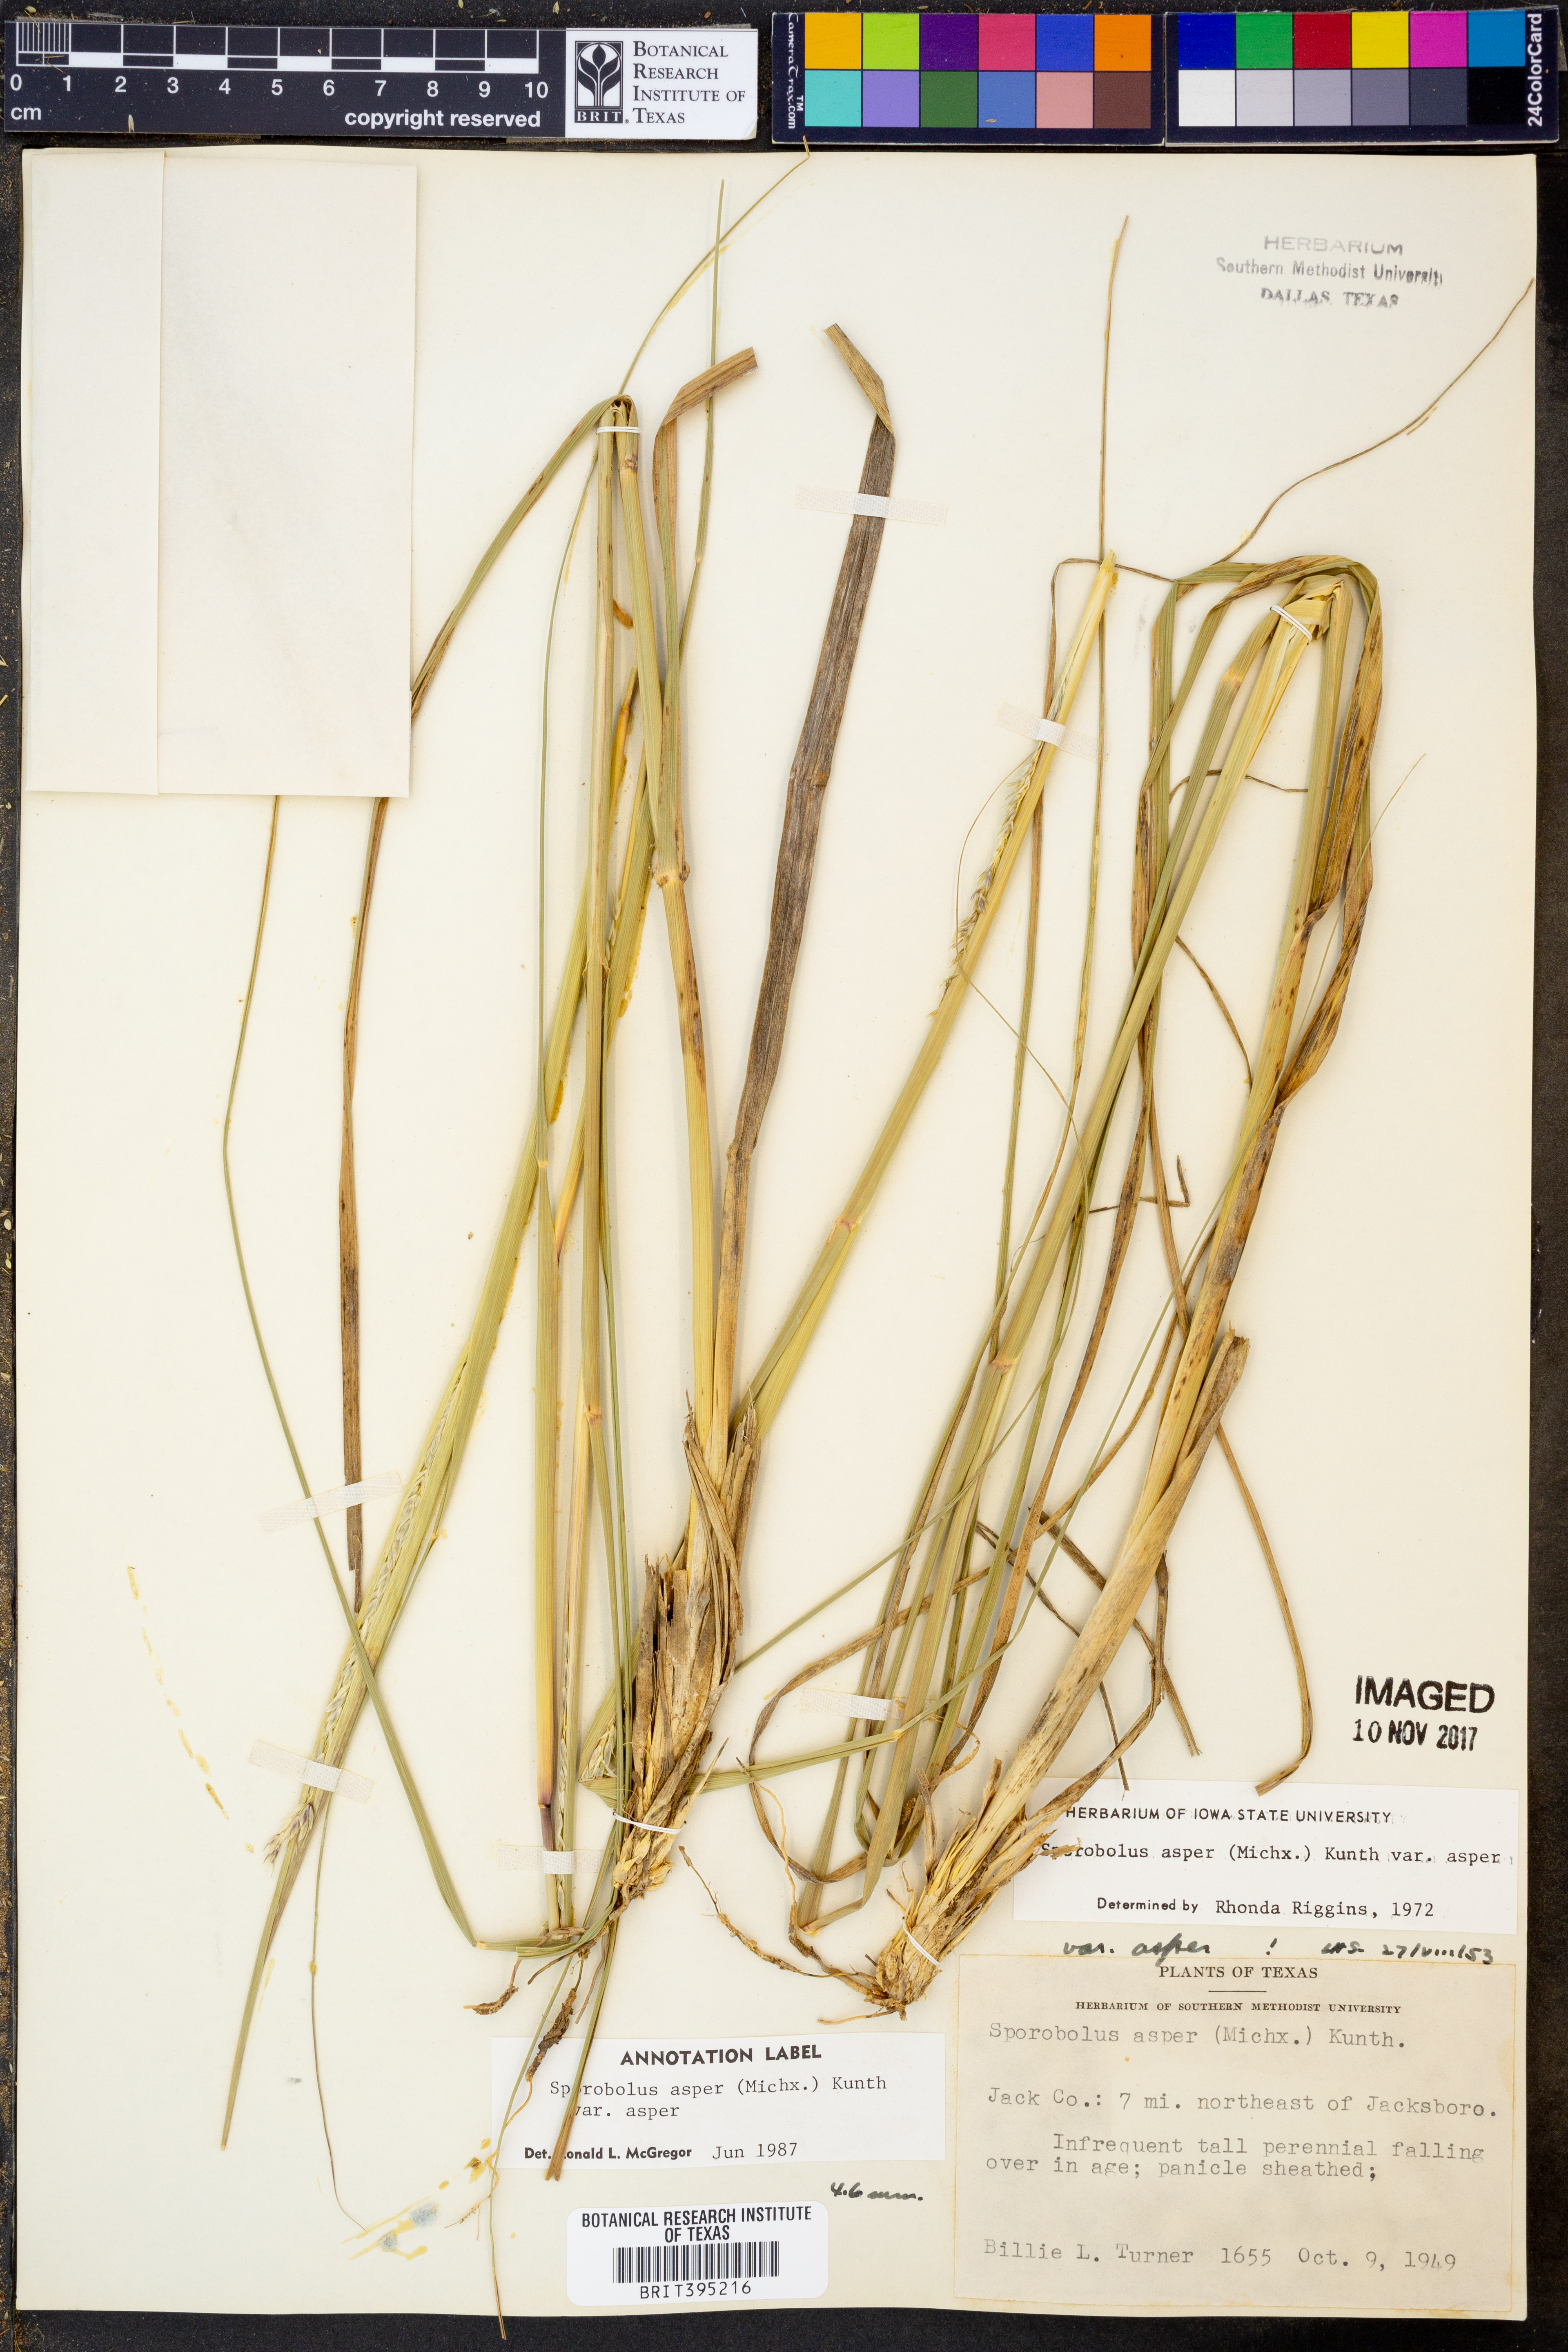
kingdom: Plantae
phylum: Tracheophyta
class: Liliopsida
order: Poales
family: Poaceae
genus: Sporobolus
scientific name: Sporobolus compositus
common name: Rough dropseed
